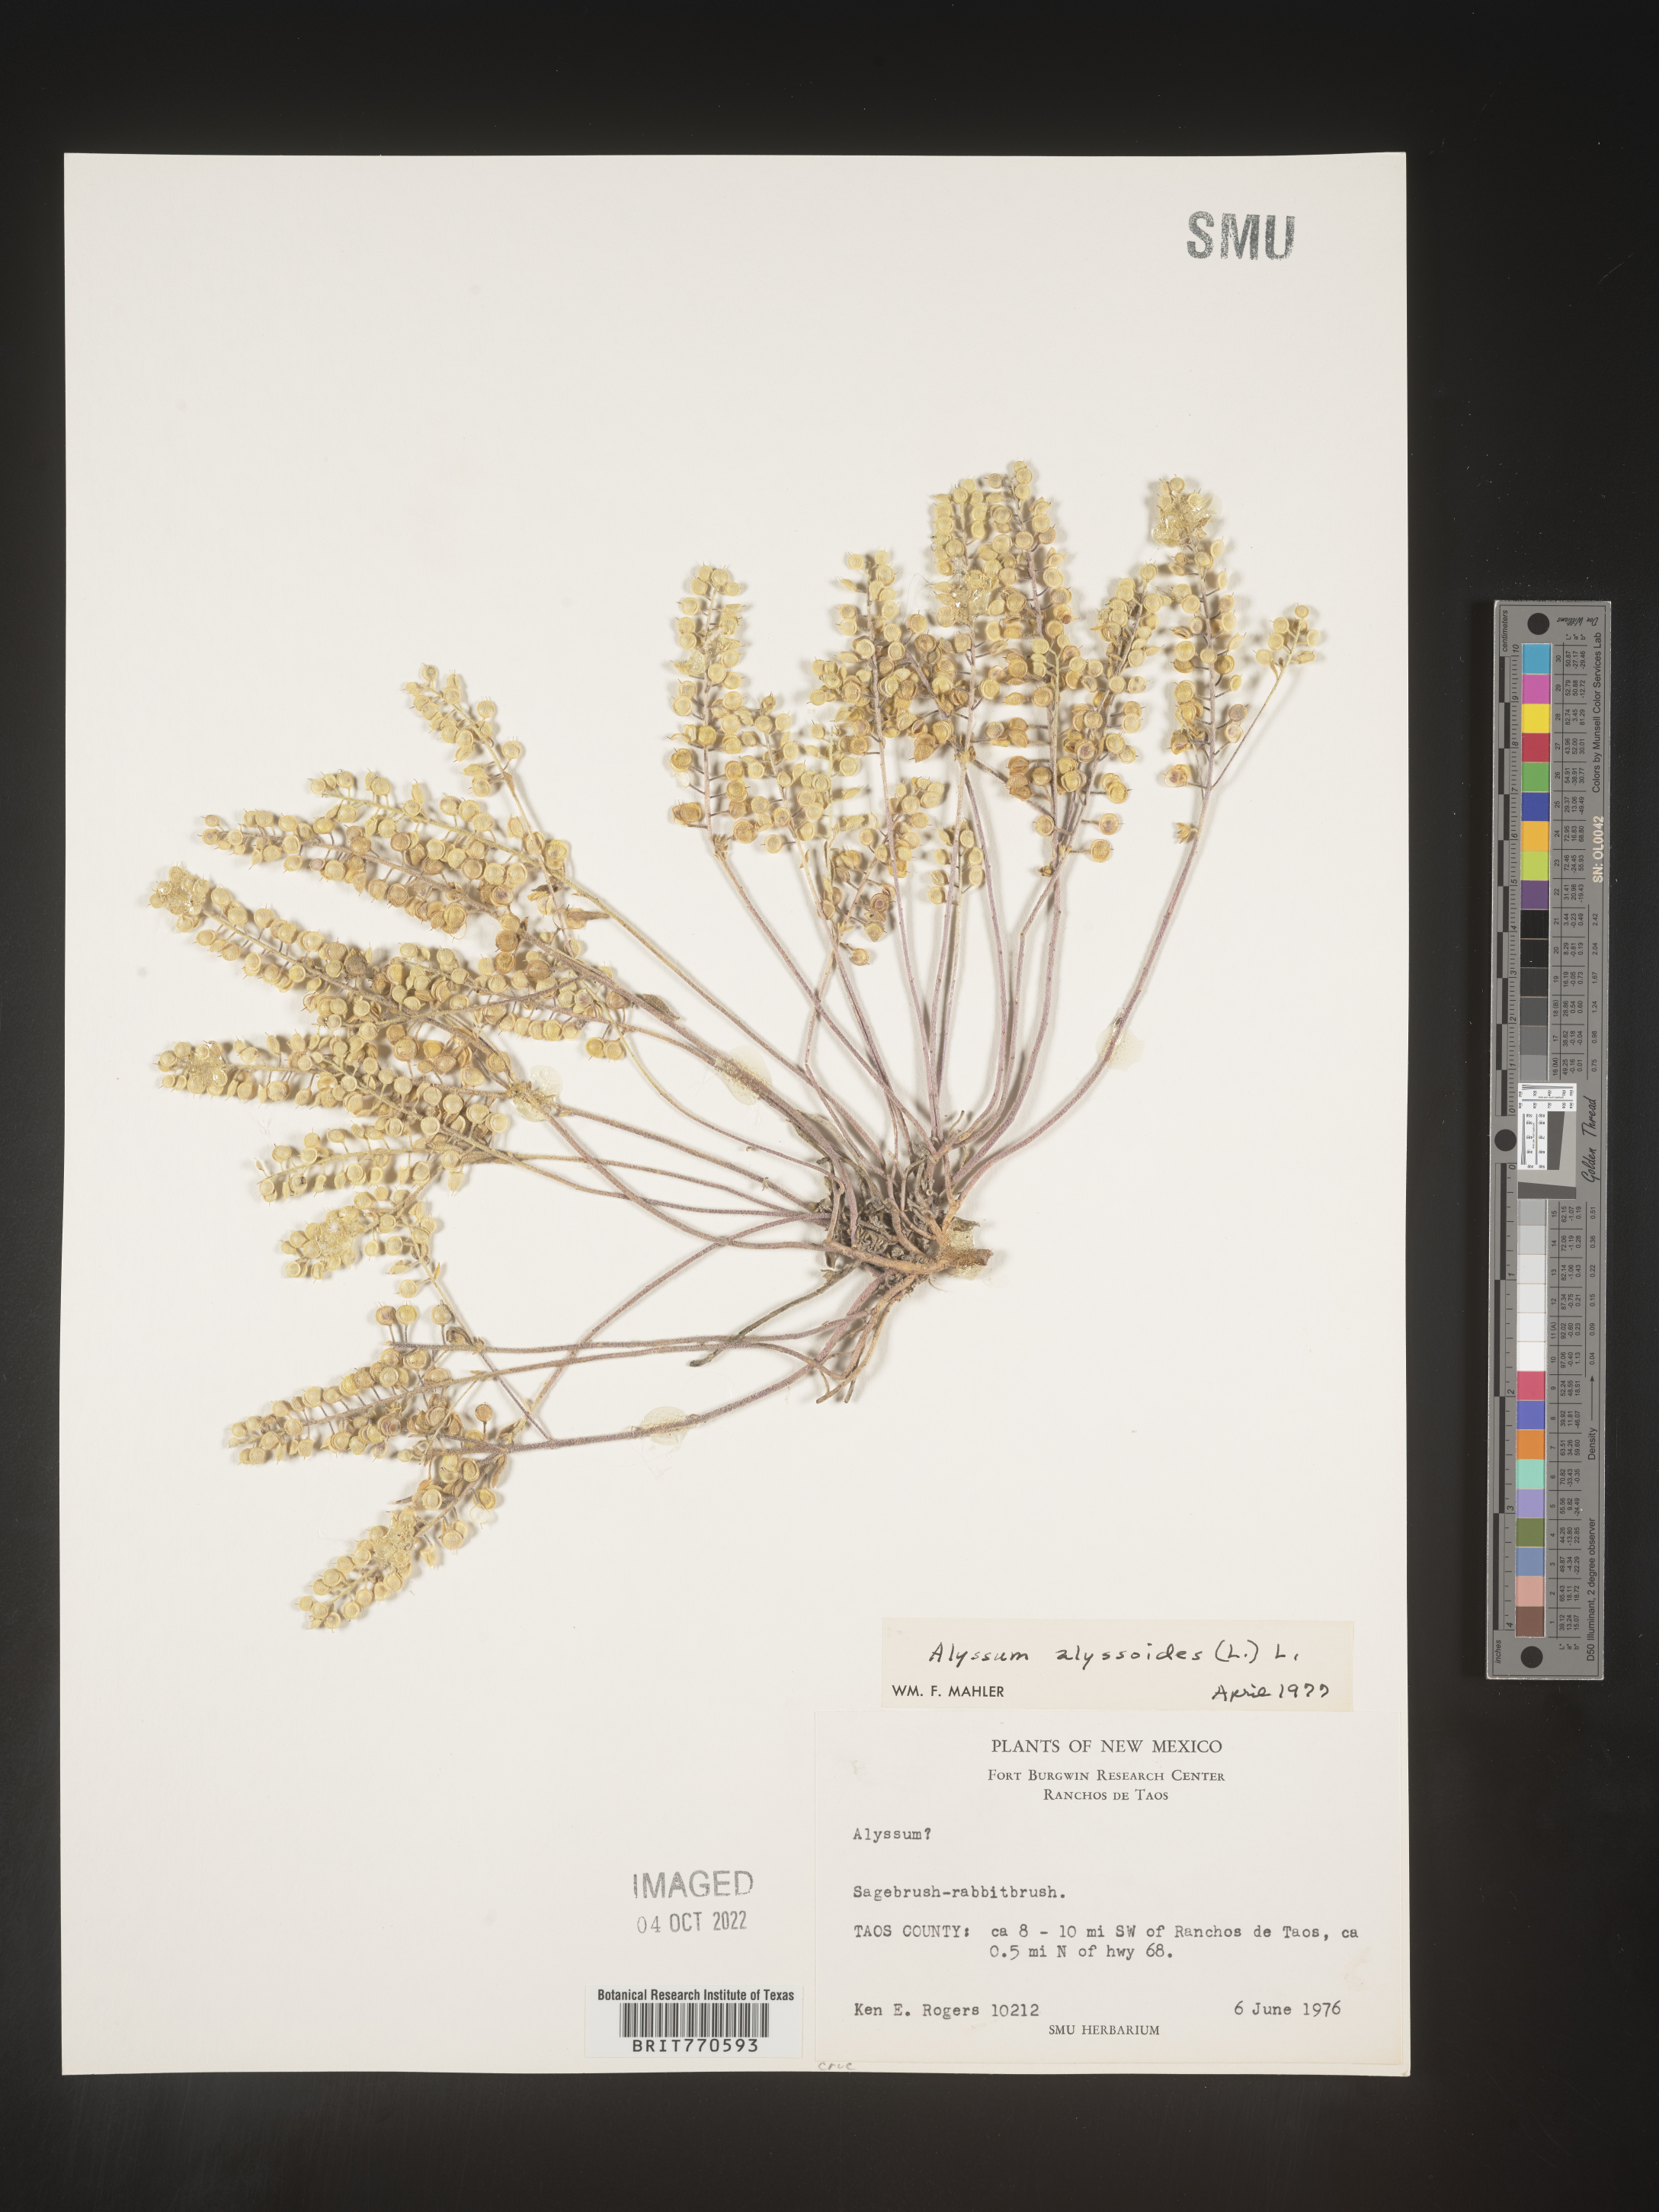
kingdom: Plantae
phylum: Tracheophyta
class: Magnoliopsida
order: Brassicales
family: Brassicaceae
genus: Alyssum
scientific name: Alyssum alyssoides
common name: Small alison
